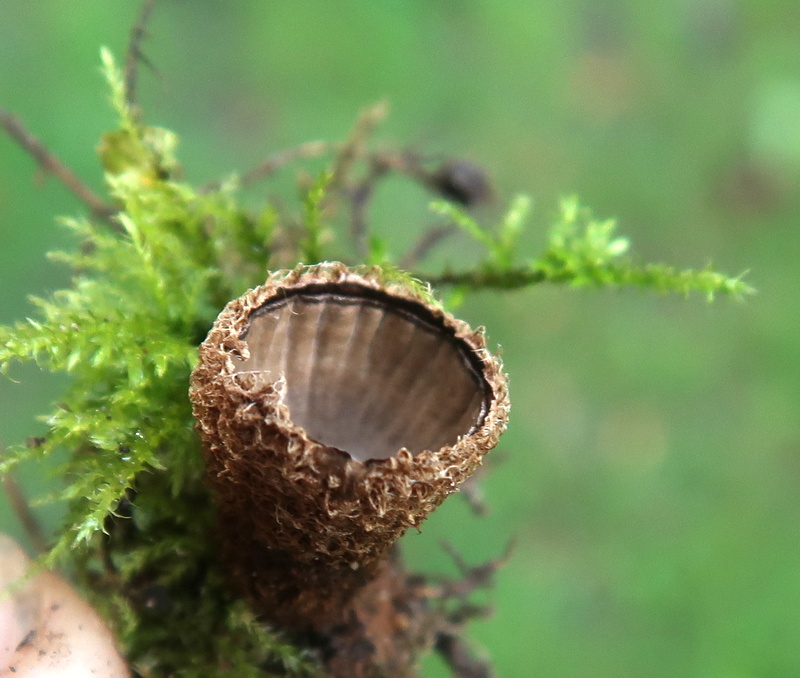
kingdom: Fungi
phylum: Basidiomycota
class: Agaricomycetes
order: Agaricales
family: Agaricaceae
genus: Cyathus
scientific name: Cyathus striatus
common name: stribet redesvamp
